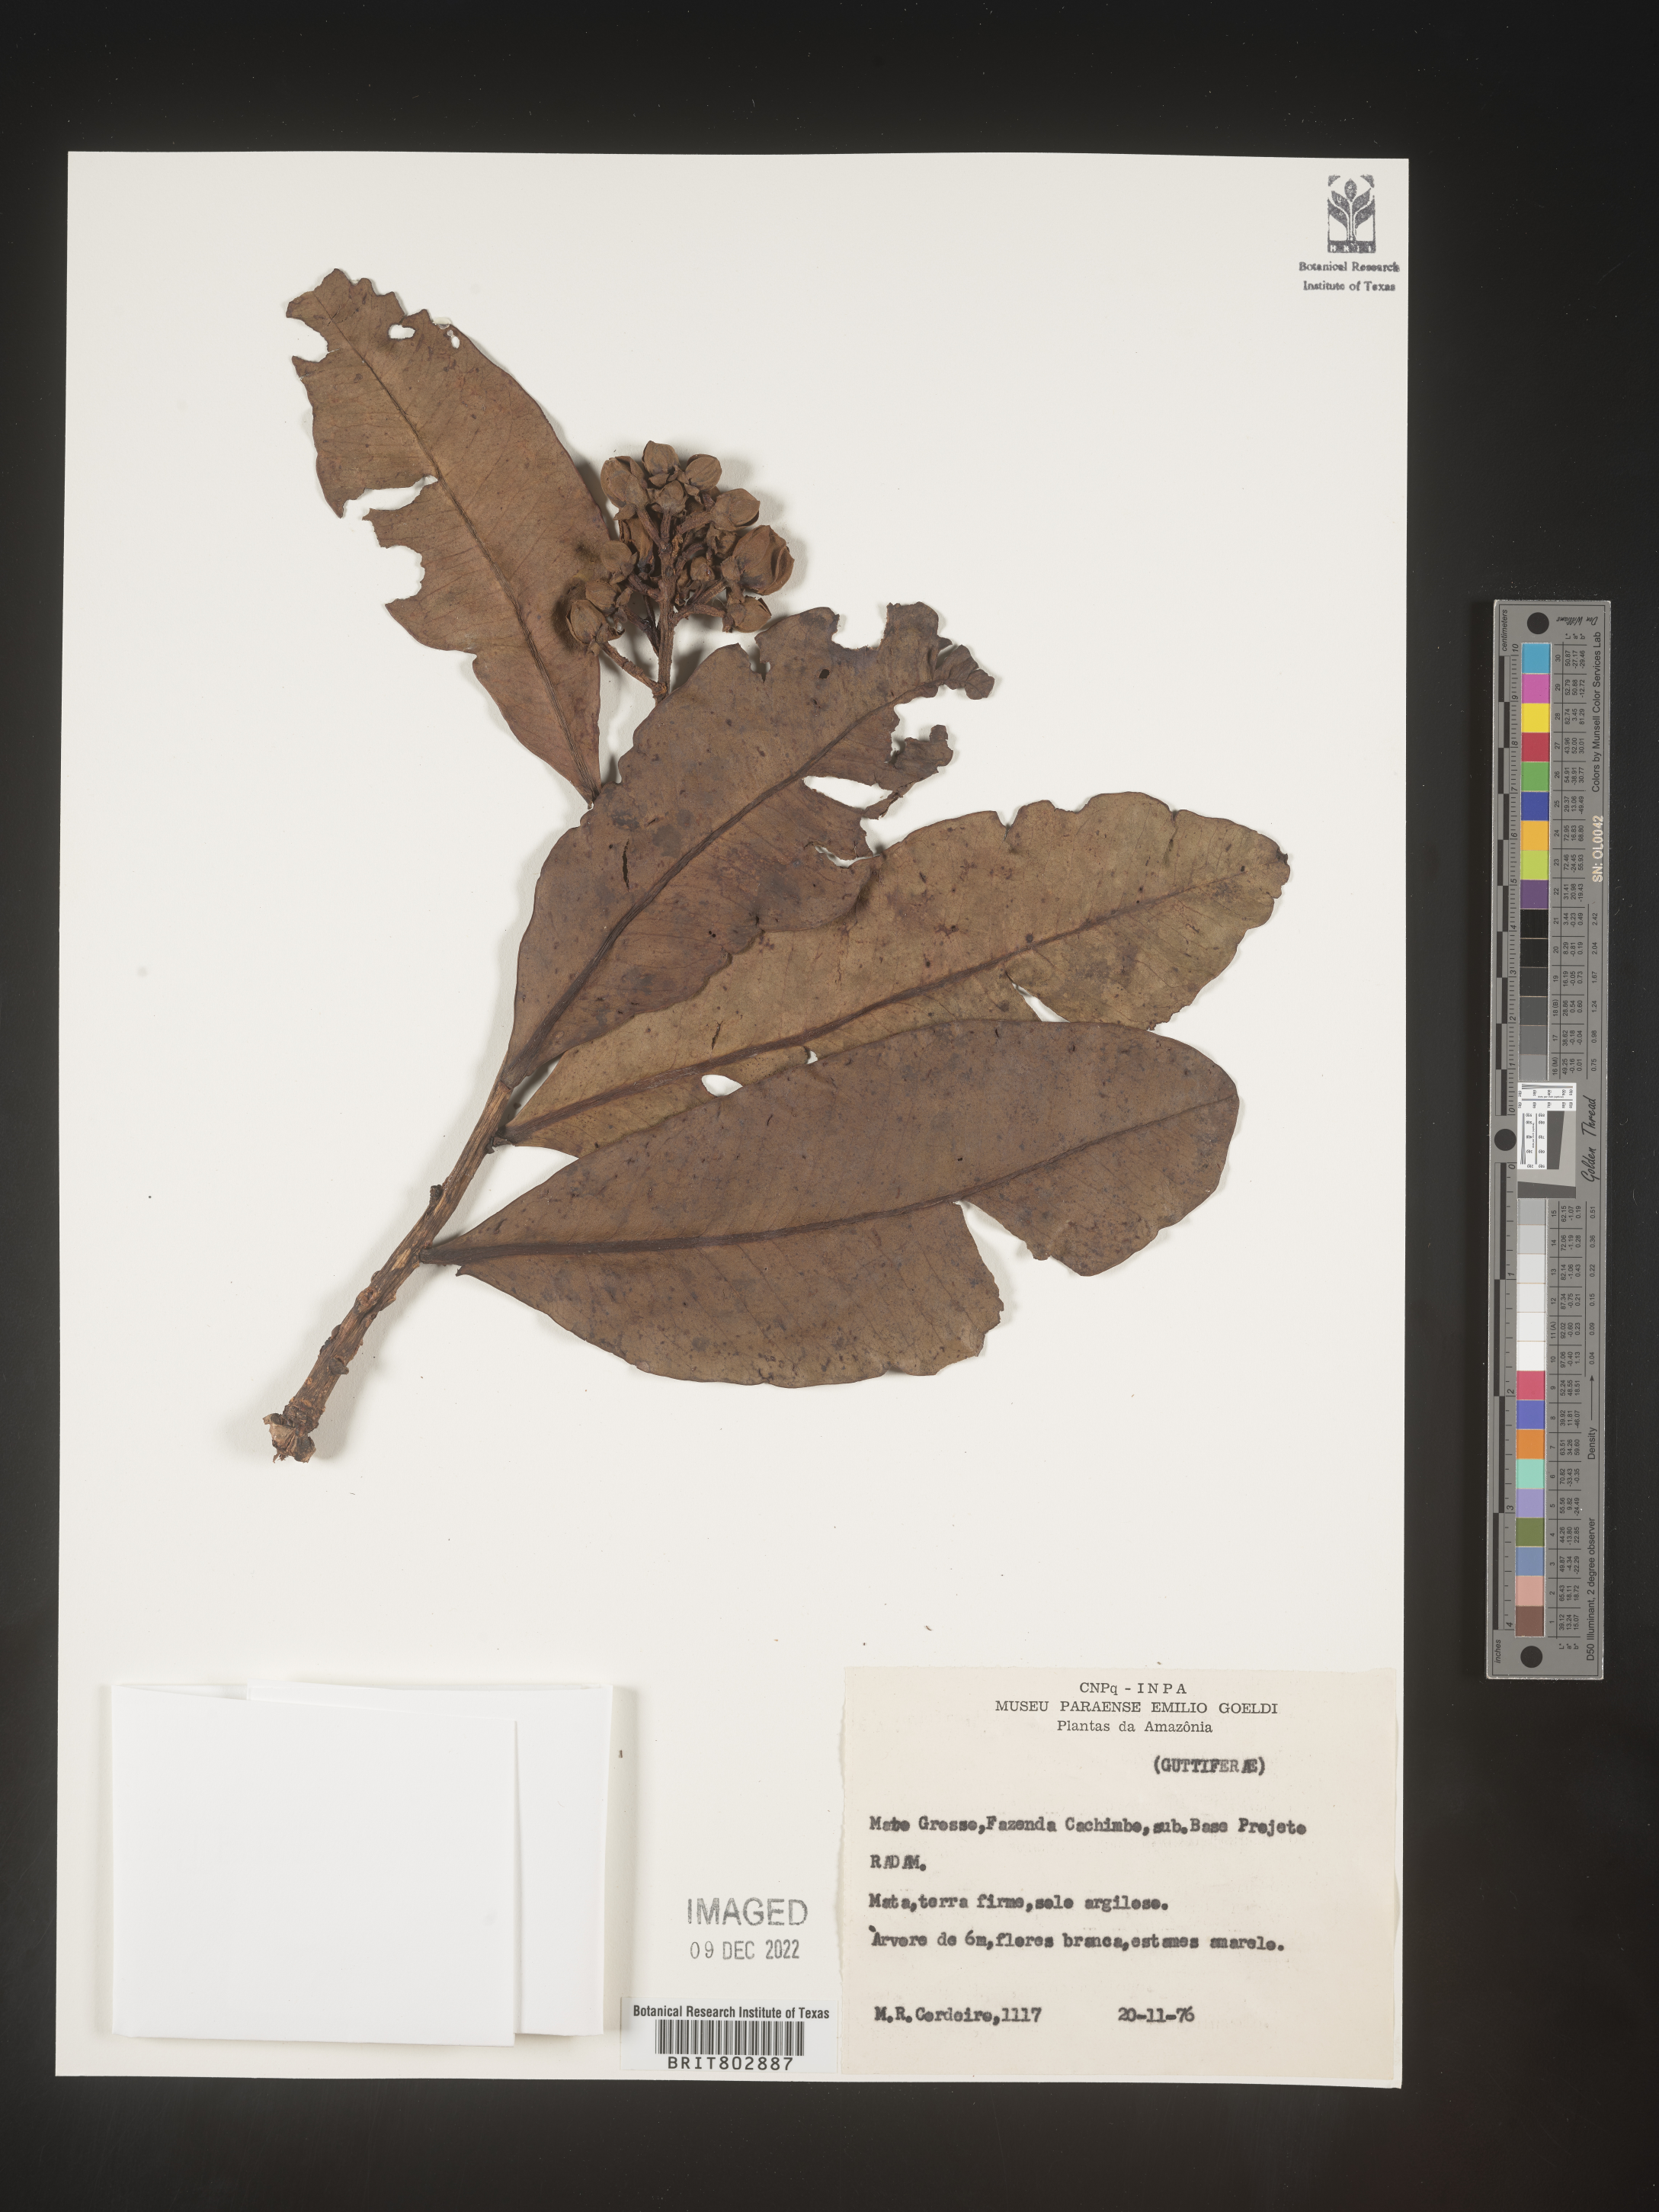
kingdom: Plantae
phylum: Tracheophyta
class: Magnoliopsida
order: Malpighiales
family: Calophyllaceae
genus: Kielmeyera
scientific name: Kielmeyera
